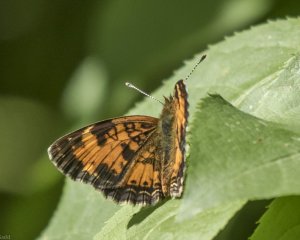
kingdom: Animalia
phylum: Arthropoda
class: Insecta
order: Lepidoptera
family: Nymphalidae
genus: Phyciodes
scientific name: Phyciodes tharos
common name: Northern Crescent
